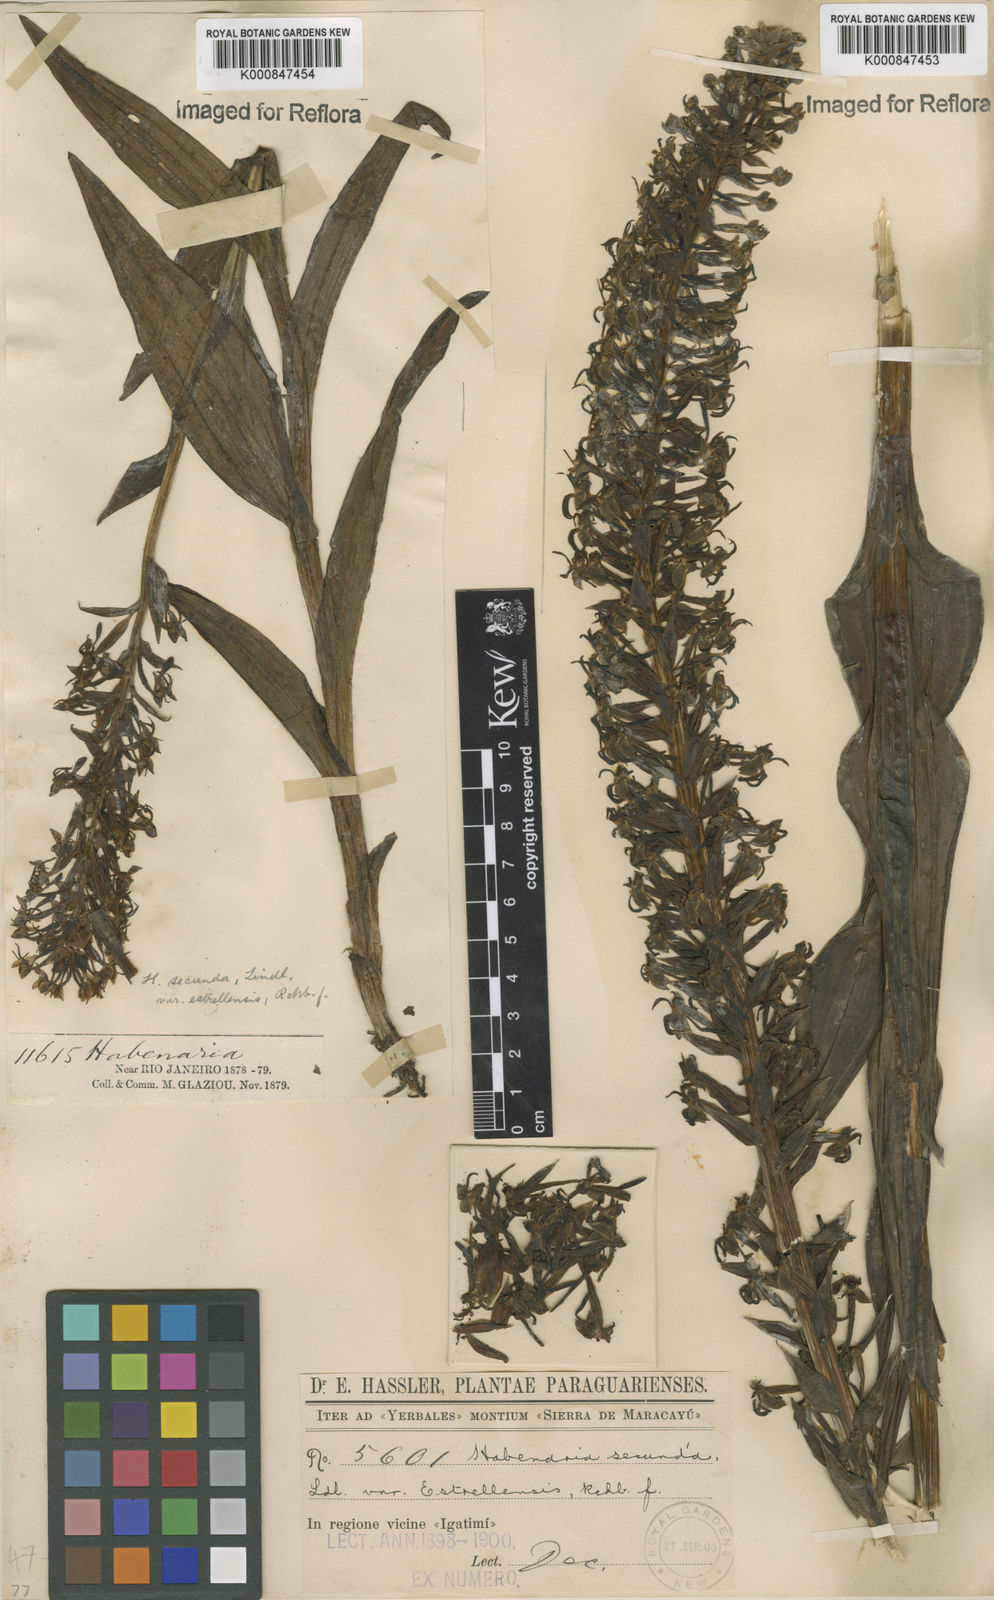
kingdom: Plantae
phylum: Tracheophyta
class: Liliopsida
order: Asparagales
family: Orchidaceae
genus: Habenaria
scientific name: Habenaria secunda
